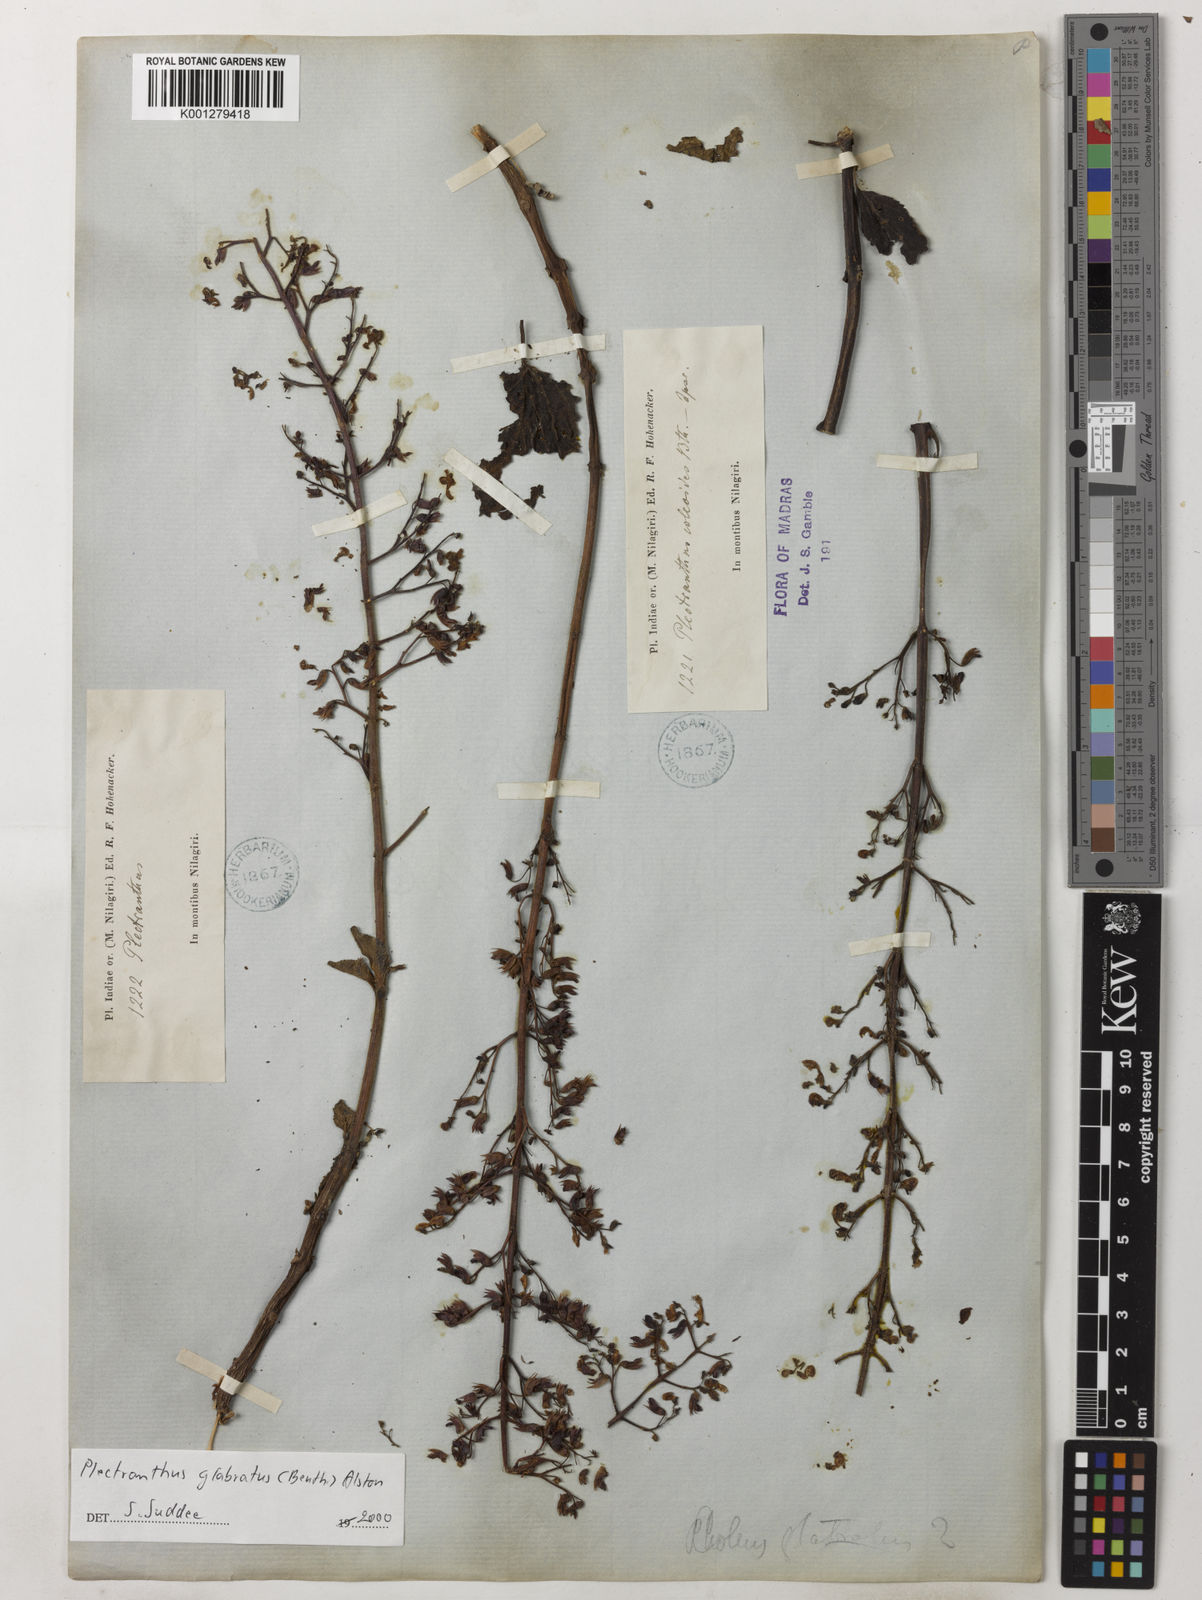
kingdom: Plantae
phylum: Tracheophyta
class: Magnoliopsida
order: Lamiales
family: Lamiaceae
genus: Coleus
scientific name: Coleus paniculatus
